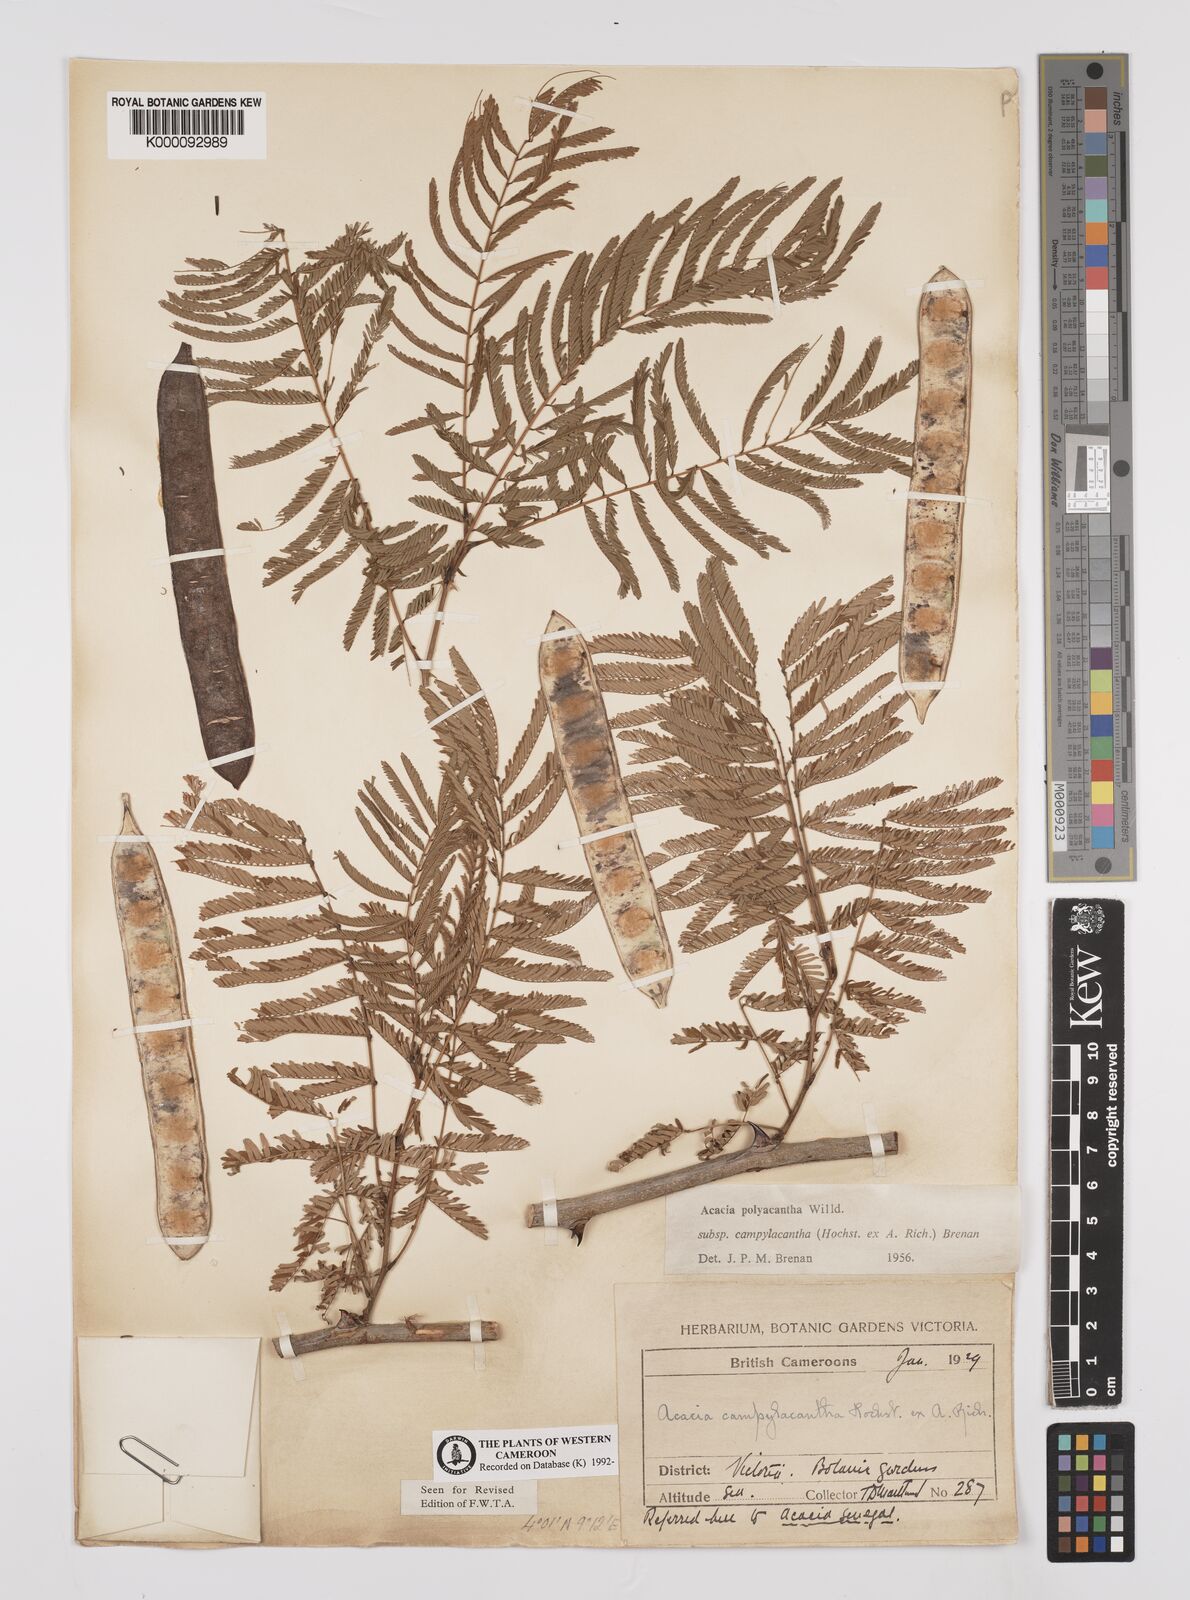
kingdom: Plantae
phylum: Tracheophyta
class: Magnoliopsida
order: Fabales
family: Fabaceae
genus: Senegalia
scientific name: Senegalia polyacantha
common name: Whitethorn
